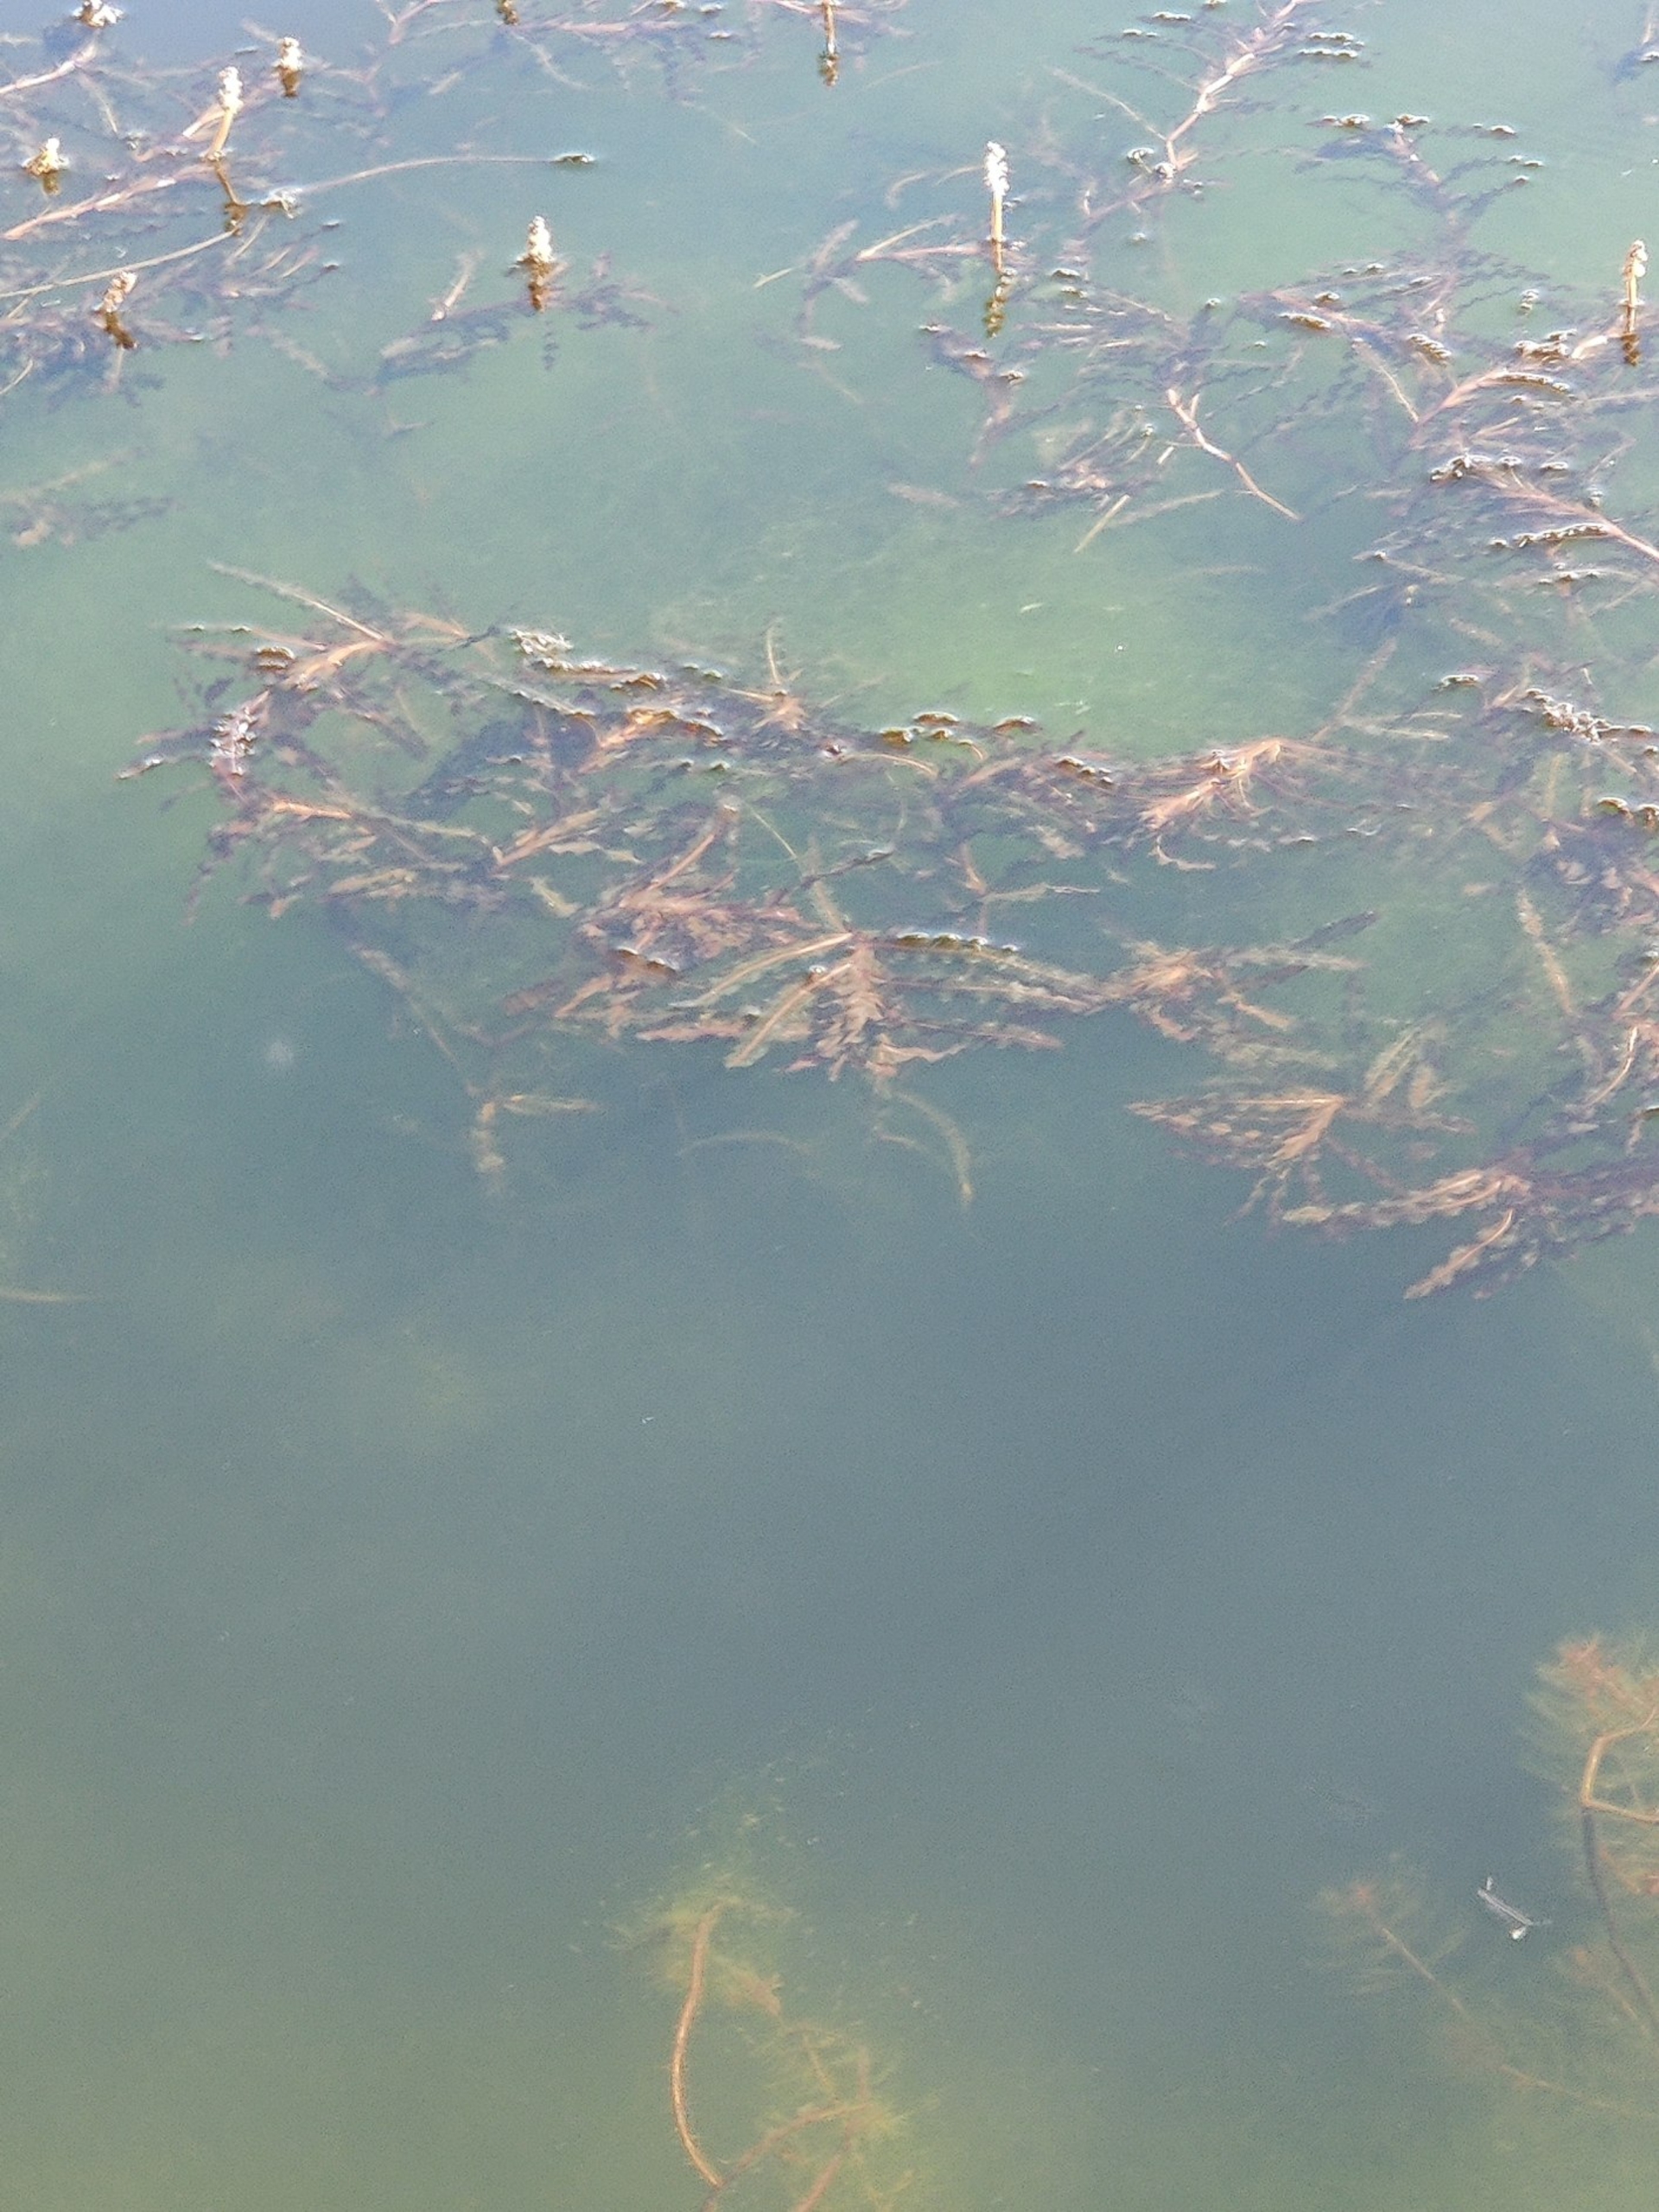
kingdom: Plantae
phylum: Tracheophyta
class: Liliopsida
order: Alismatales
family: Potamogetonaceae
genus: Potamogeton
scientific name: Potamogeton crispus
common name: Kruset vandaks
